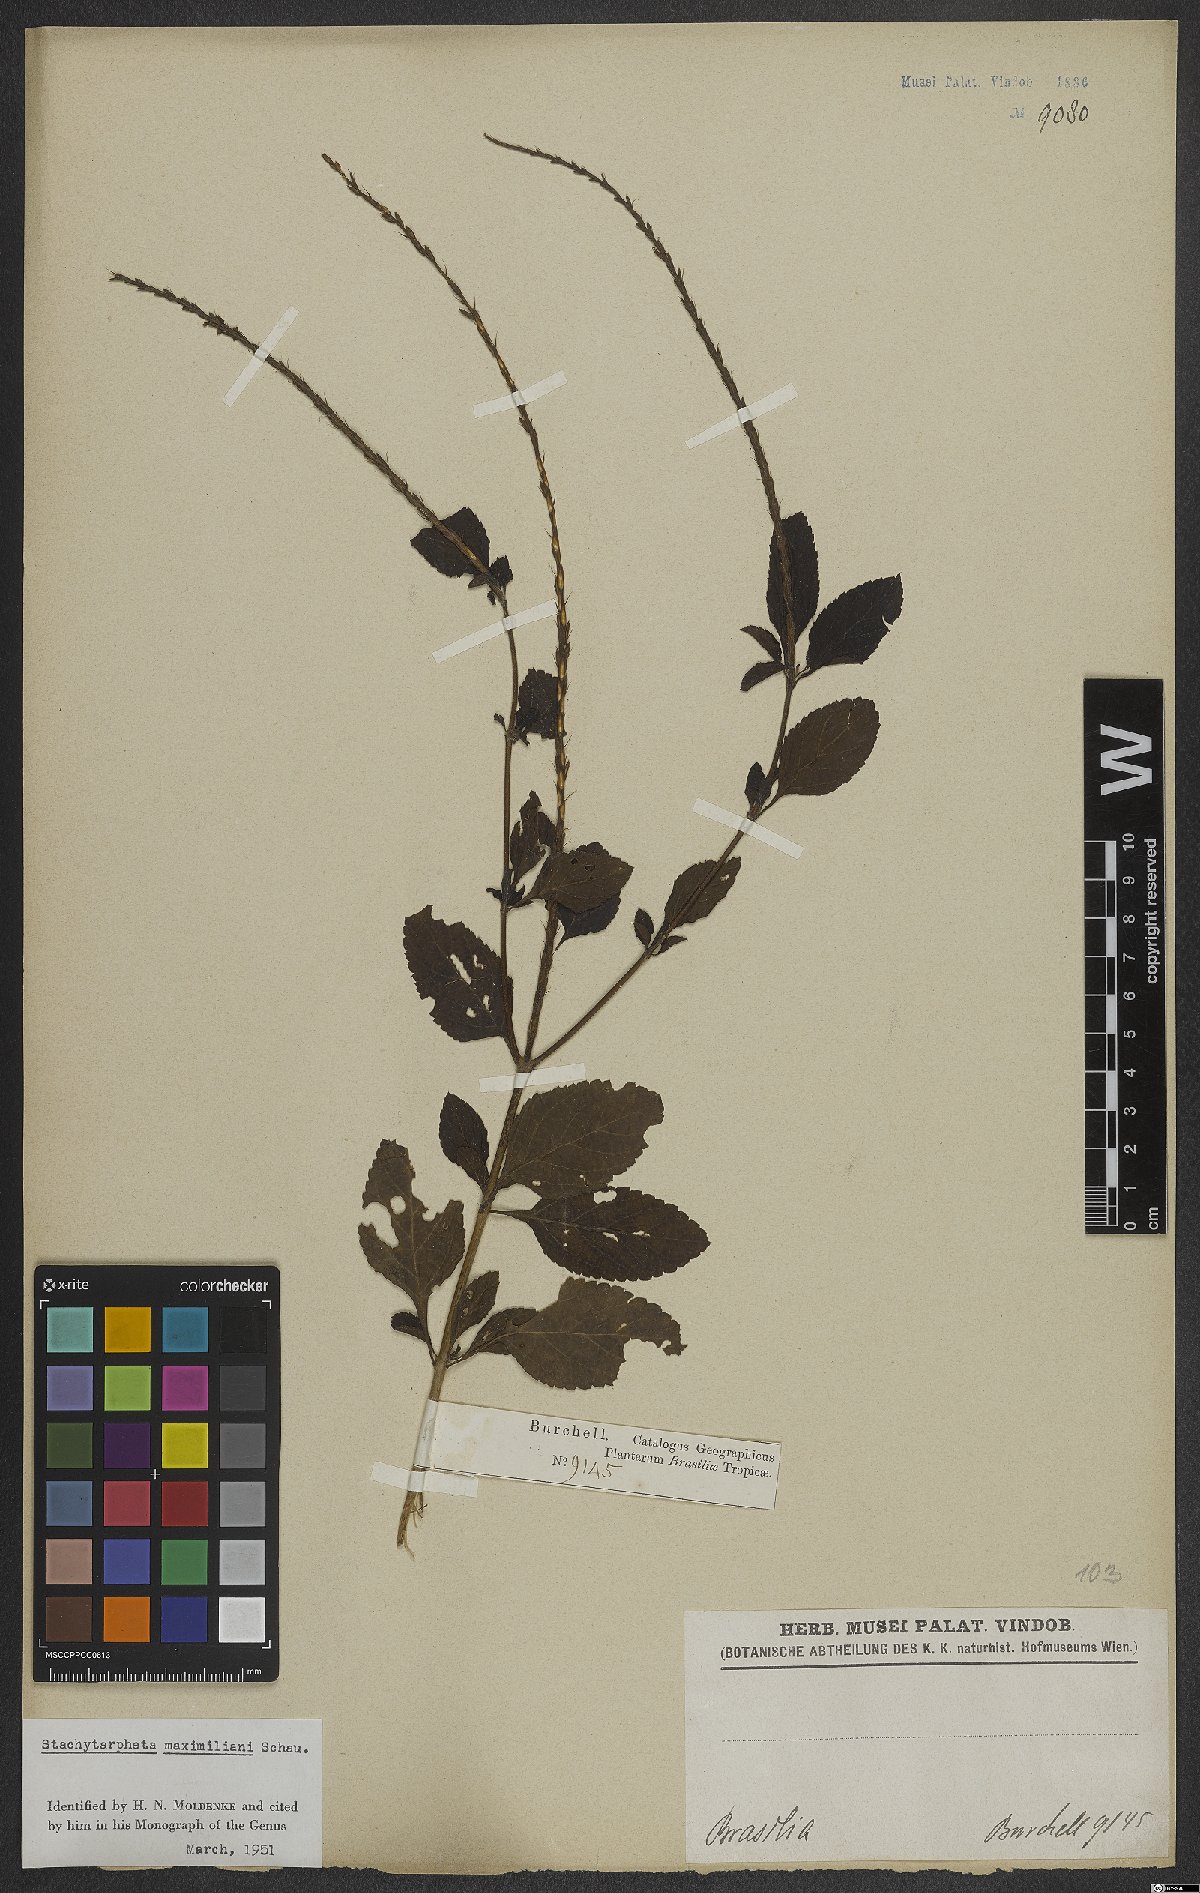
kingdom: Plantae
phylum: Tracheophyta
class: Magnoliopsida
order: Lamiales
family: Verbenaceae
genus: Stachytarpheta
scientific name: Stachytarpheta maximiliani
